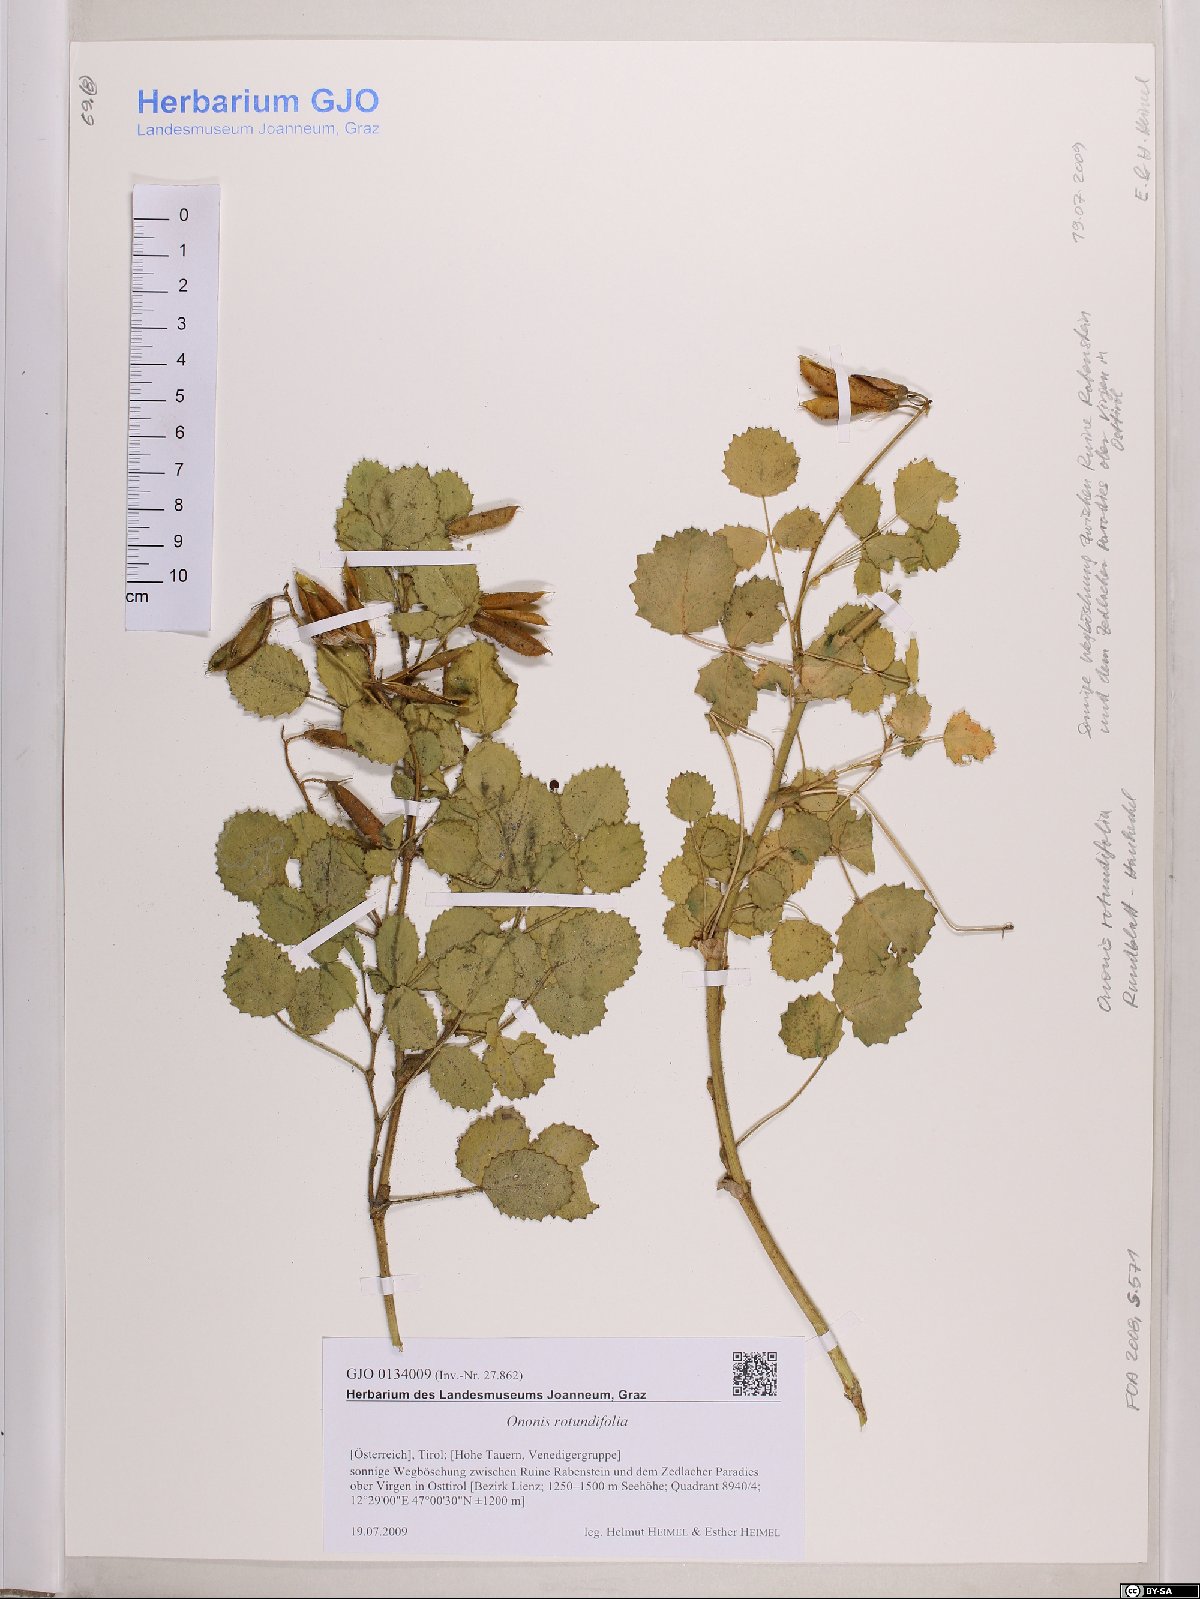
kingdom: Plantae
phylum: Tracheophyta
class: Magnoliopsida
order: Fabales
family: Fabaceae
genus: Ononis
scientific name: Ononis rotundifolia
